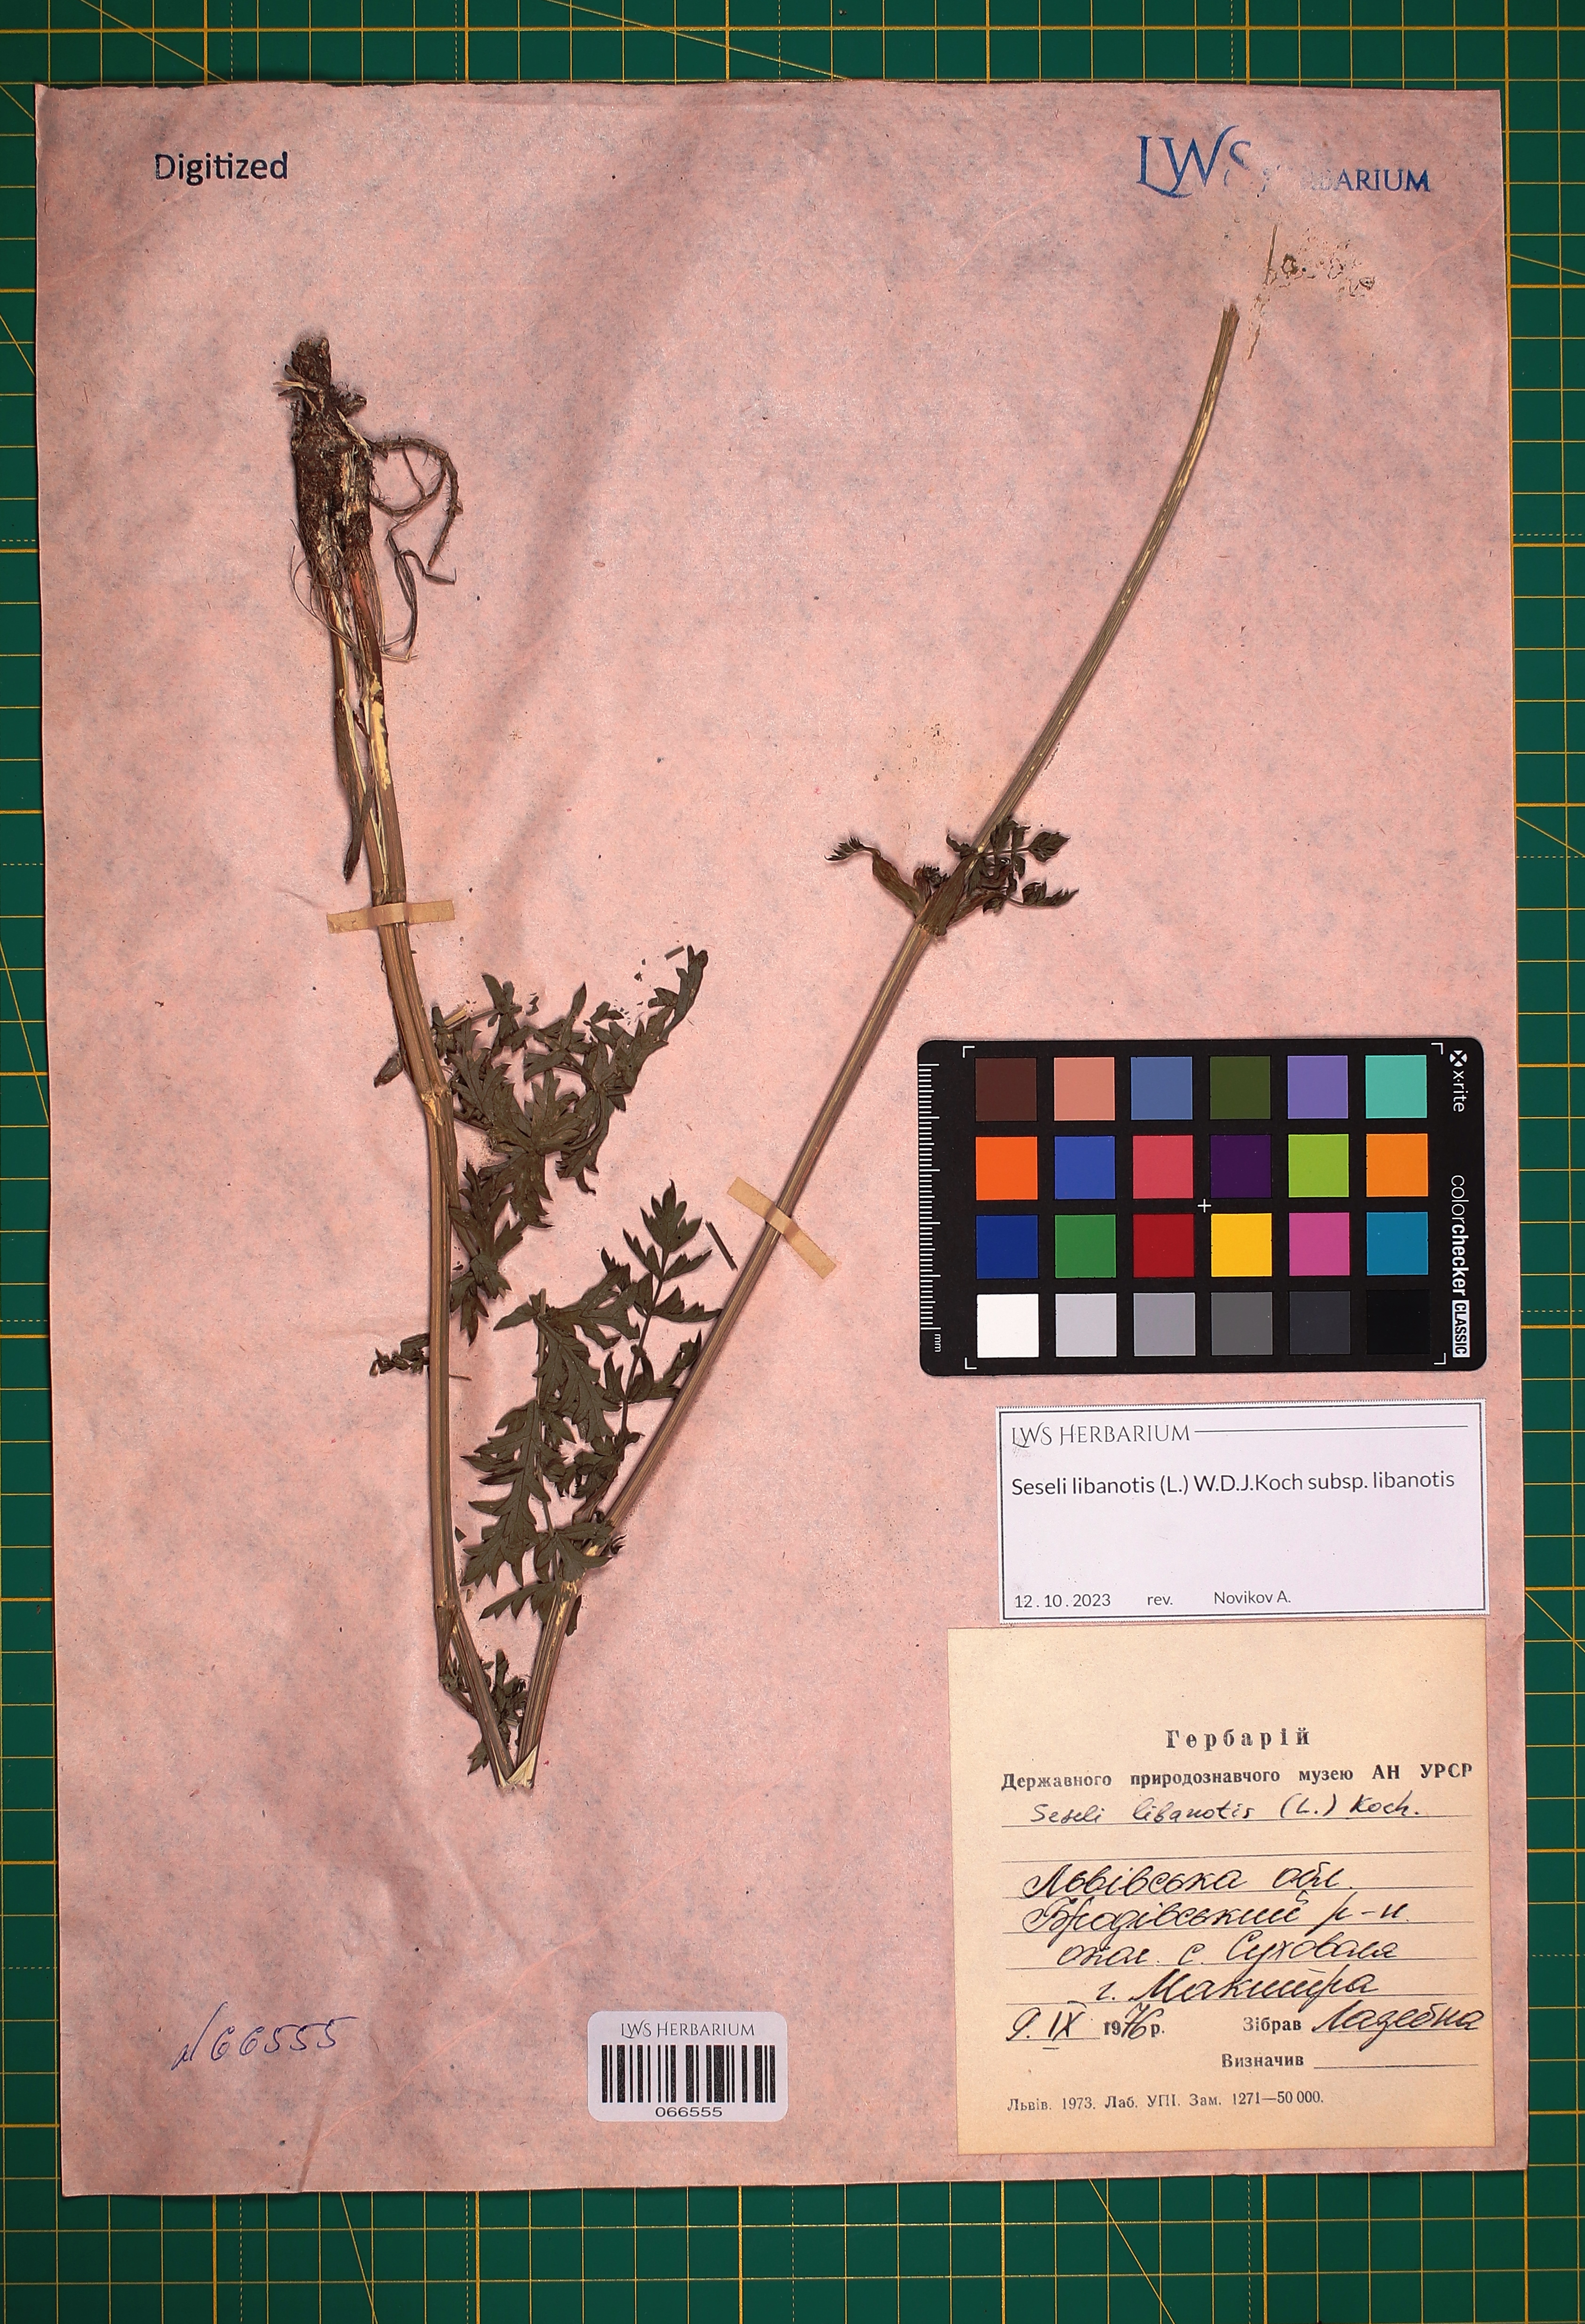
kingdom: Plantae
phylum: Tracheophyta
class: Magnoliopsida
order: Apiales
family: Apiaceae
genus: Seseli
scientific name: Seseli libanotis
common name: Mooncarrot
